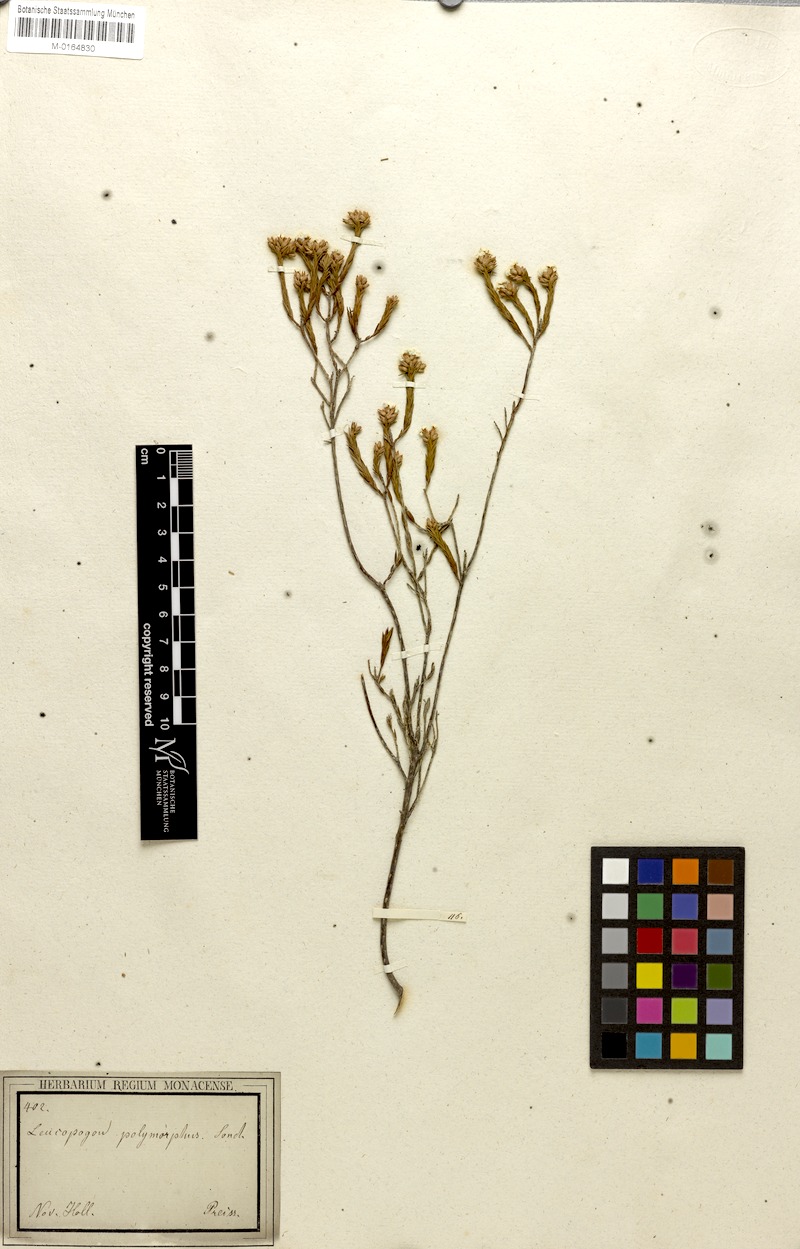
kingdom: Plantae
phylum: Tracheophyta
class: Magnoliopsida
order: Ericales
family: Ericaceae
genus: Leucopogon
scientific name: Leucopogon polymorphus
